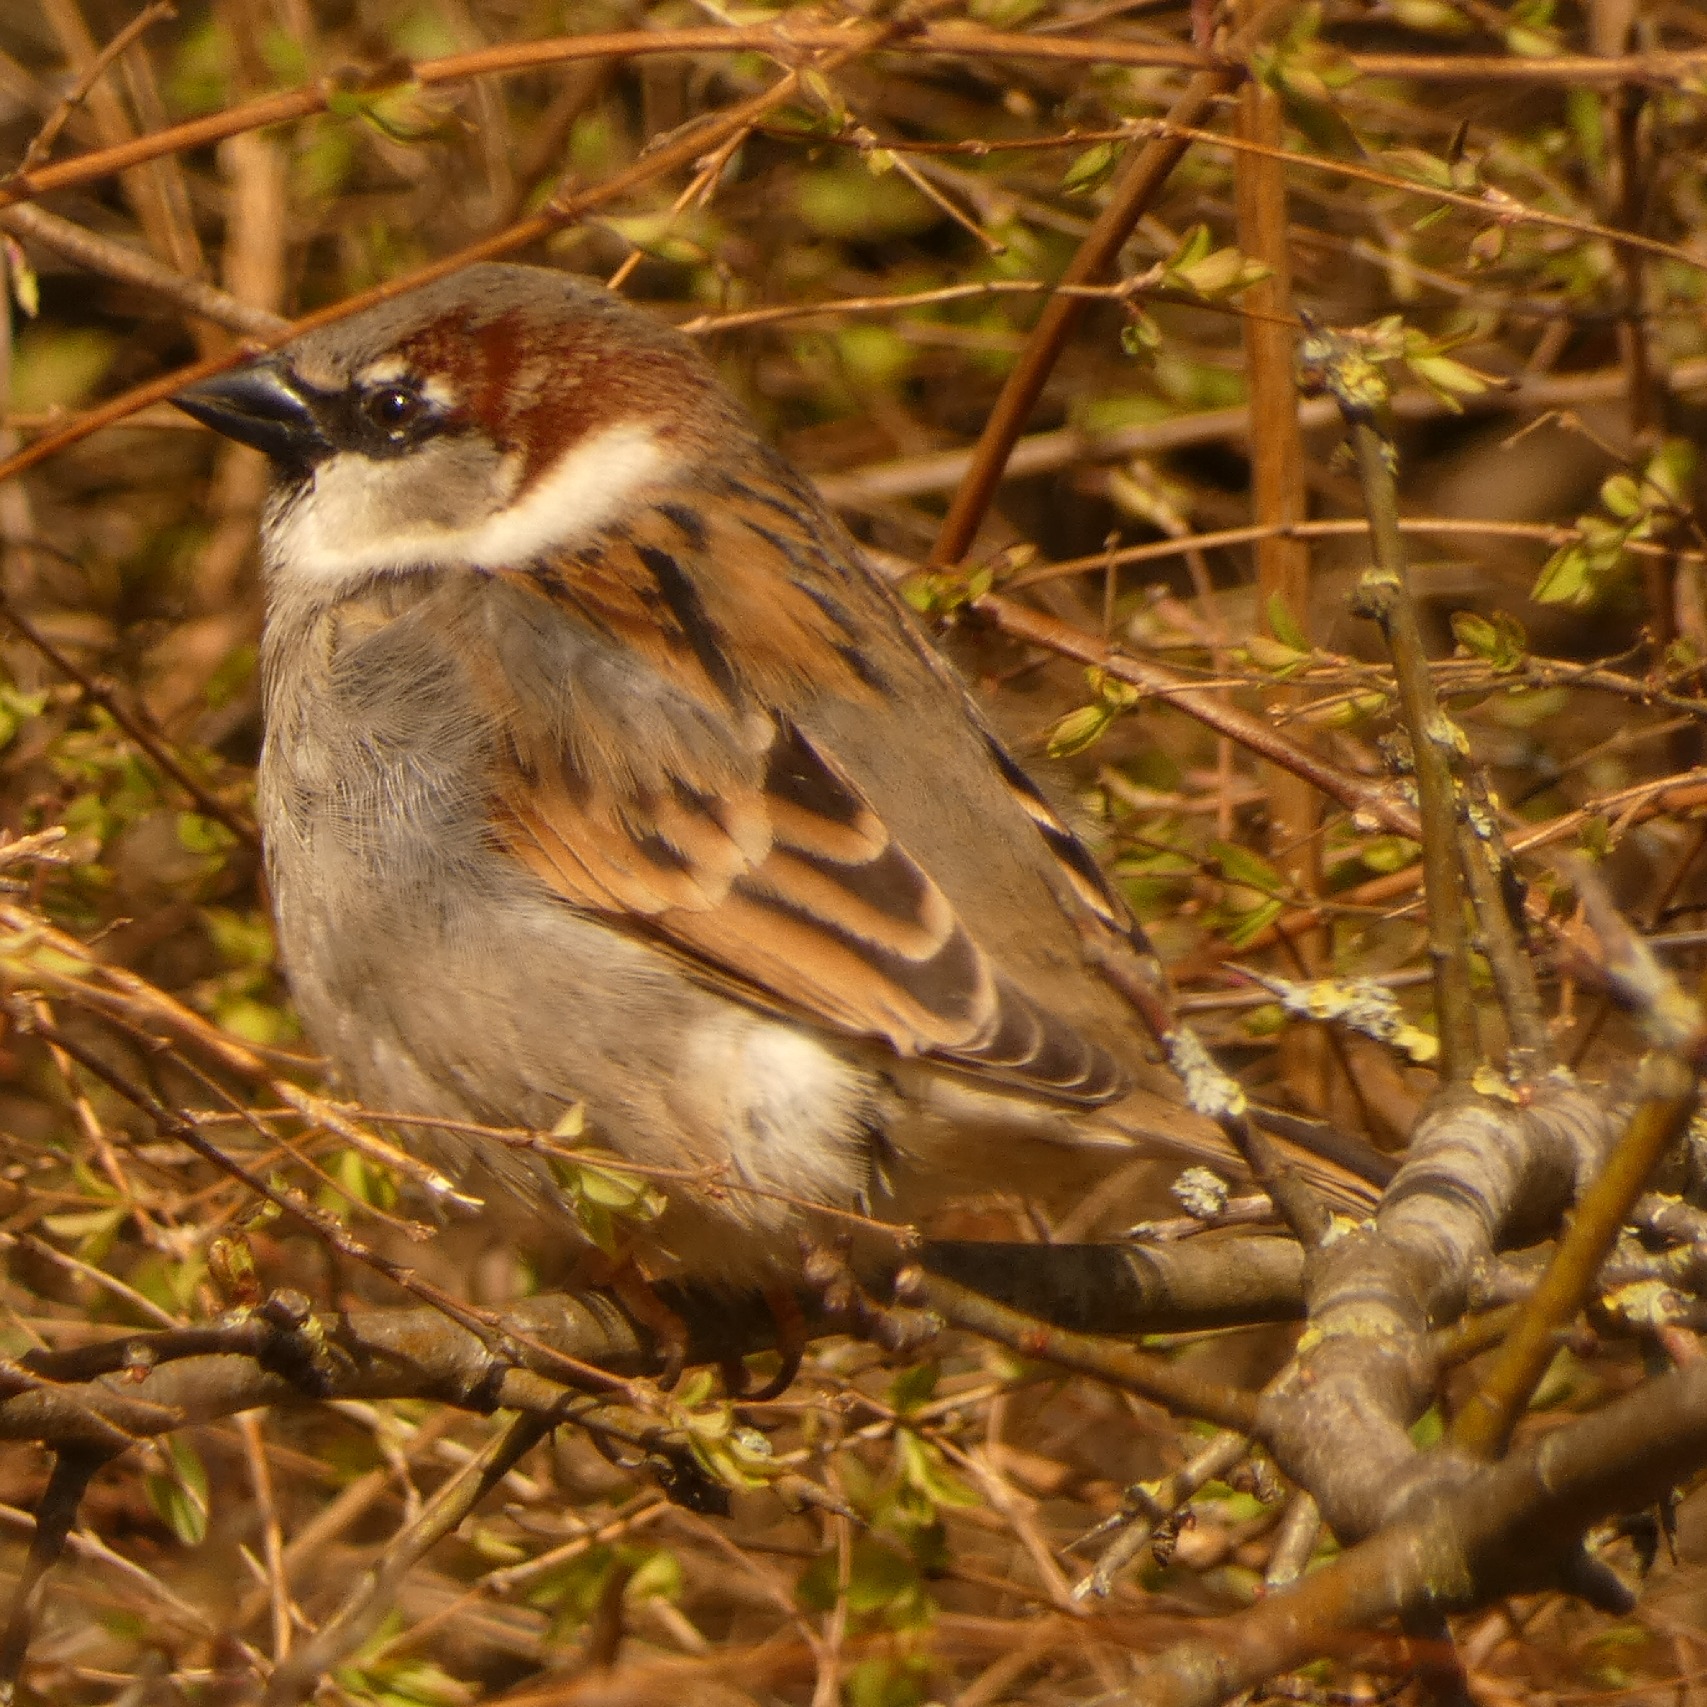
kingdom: Animalia
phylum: Chordata
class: Aves
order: Passeriformes
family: Passeridae
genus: Passer
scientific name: Passer domesticus
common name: Gråspurv
